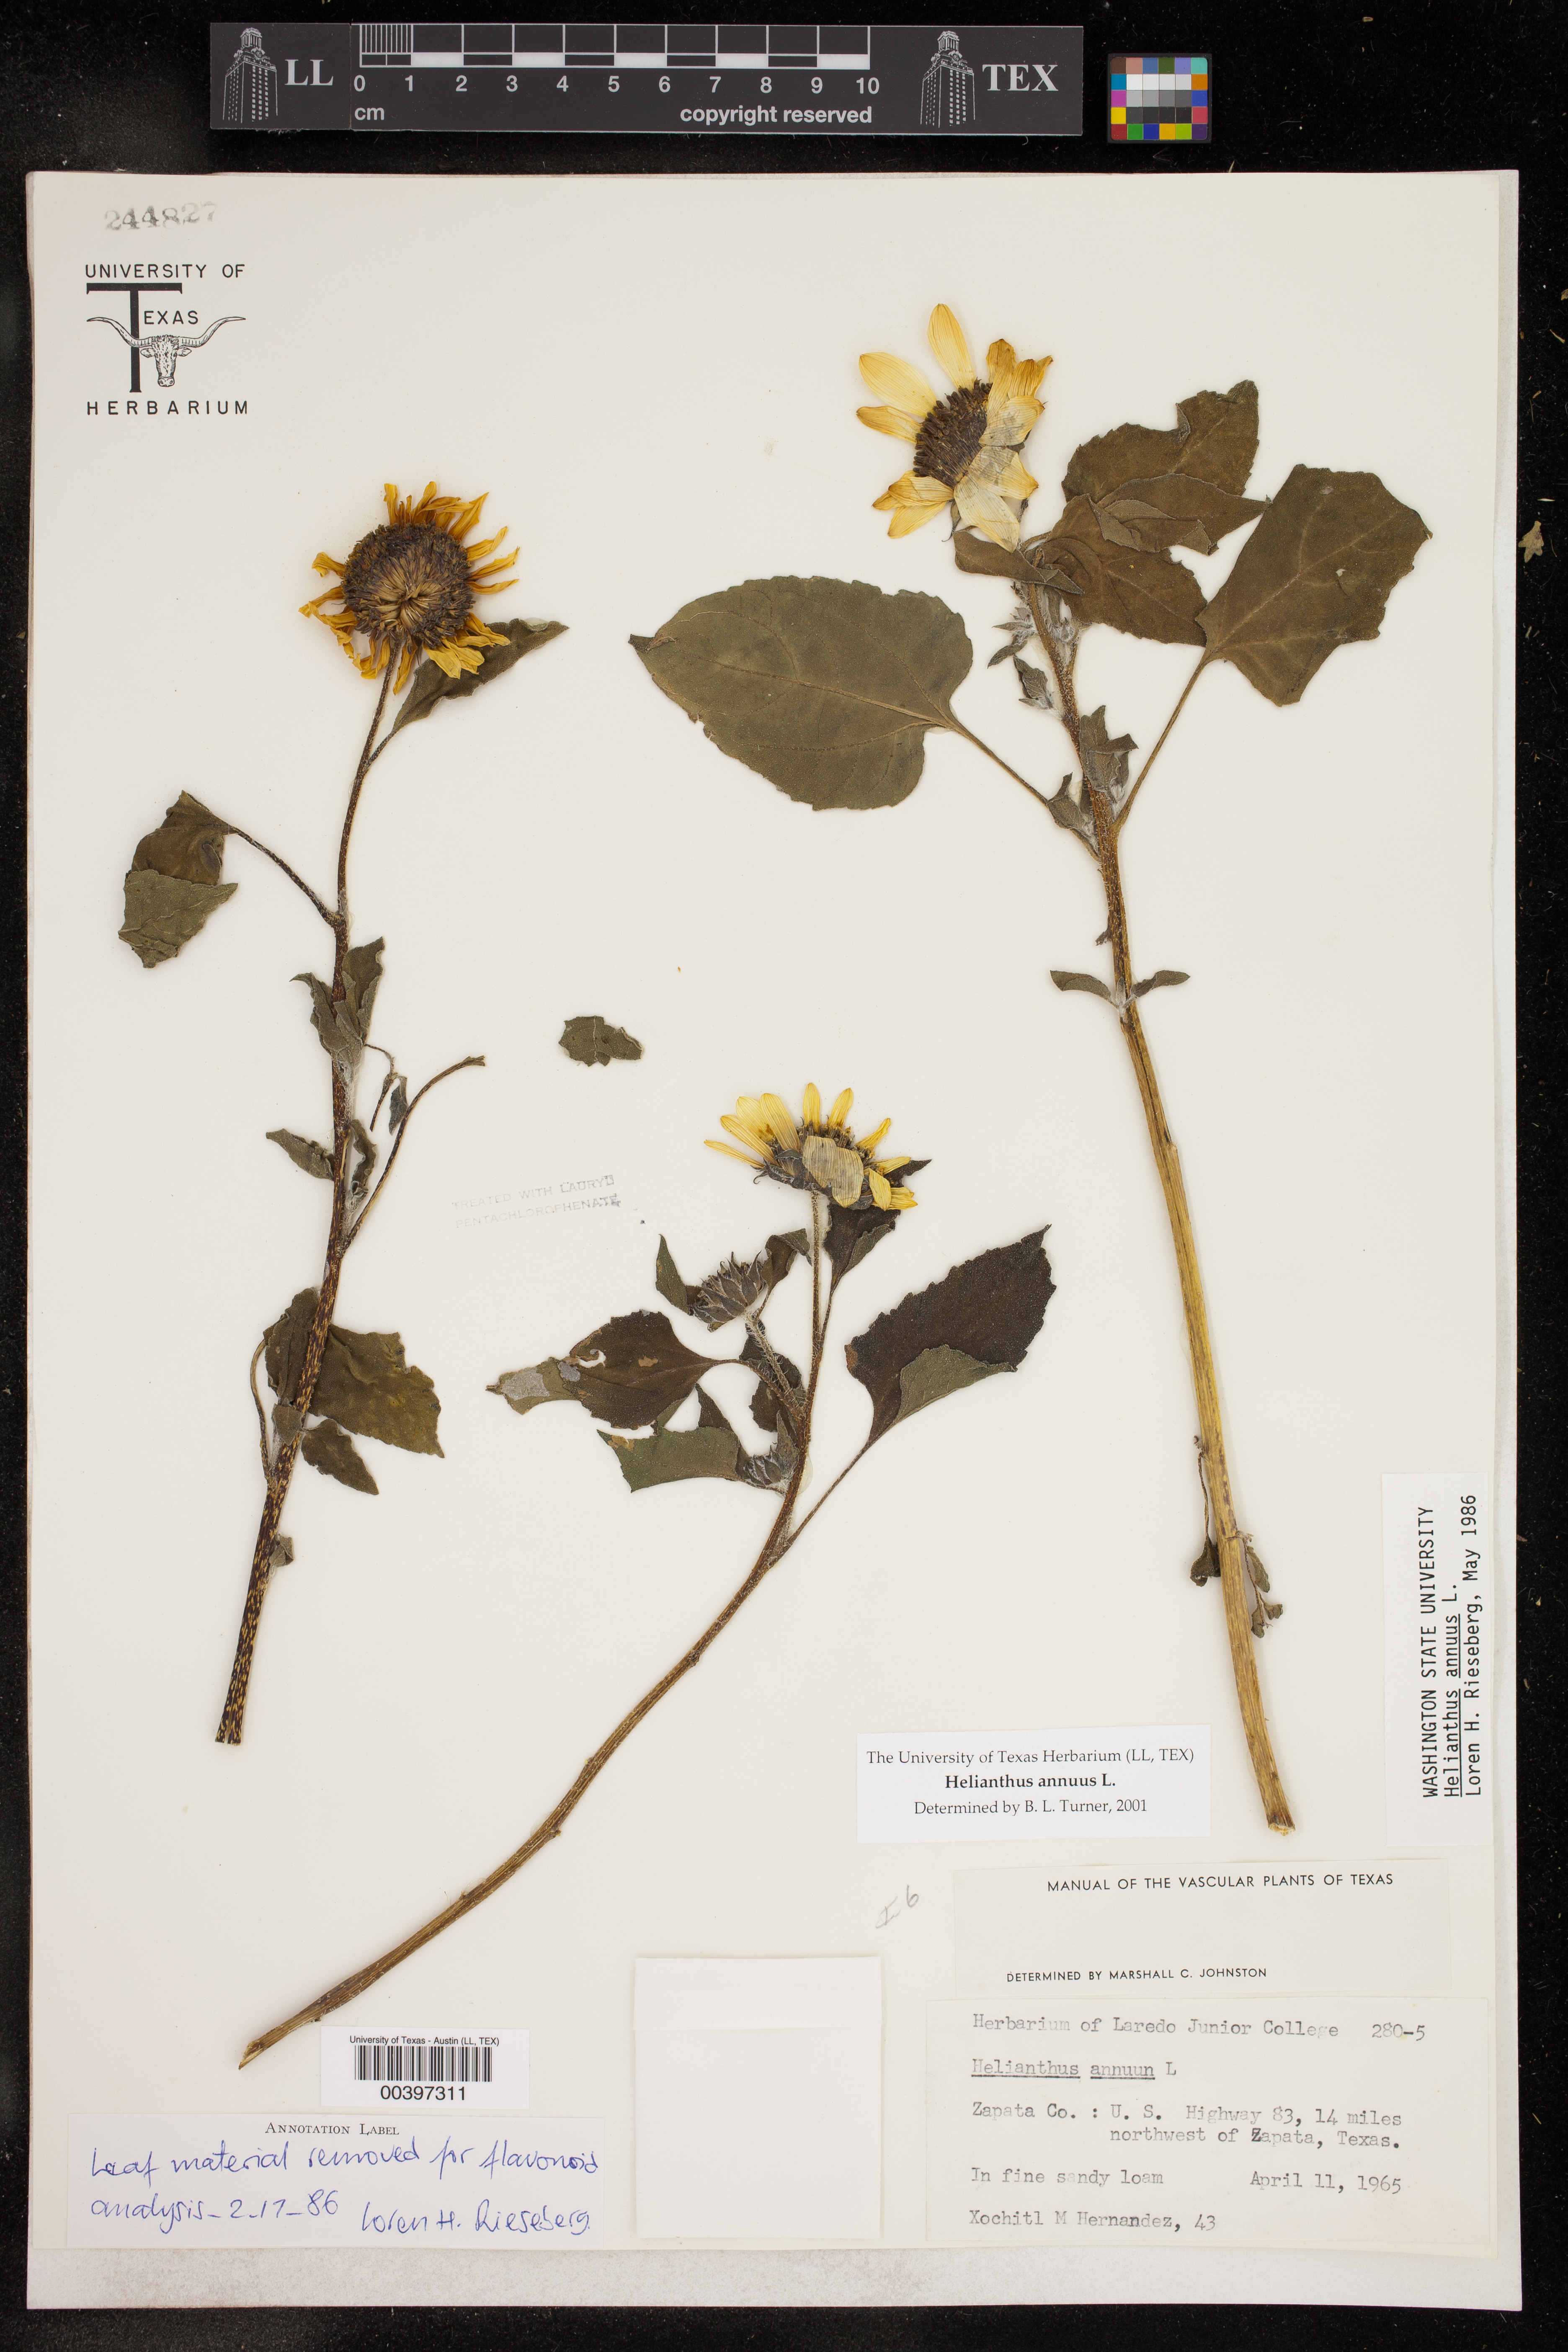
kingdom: Plantae
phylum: Tracheophyta
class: Magnoliopsida
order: Asterales
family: Asteraceae
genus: Helianthus
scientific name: Helianthus annuus
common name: Sunflower
